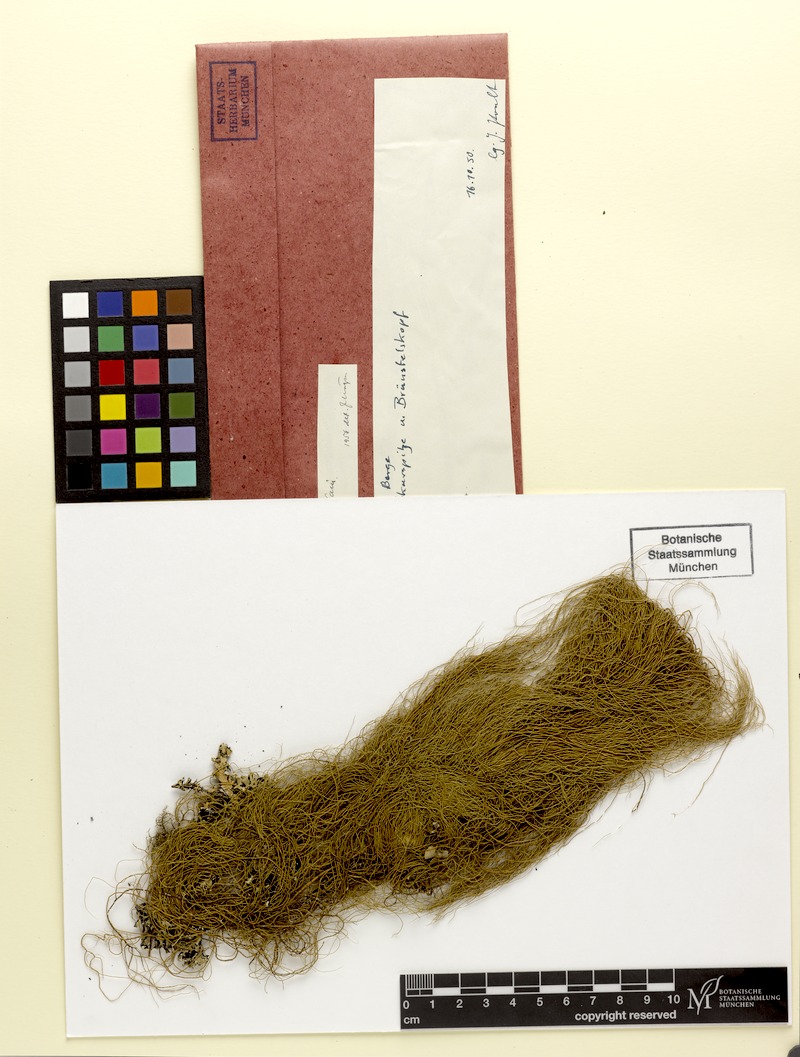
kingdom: Fungi
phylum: Ascomycota
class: Lecanoromycetes
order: Lecanorales
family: Parmeliaceae
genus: Usnea
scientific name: Usnea scabrata
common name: Straw beard lichen
